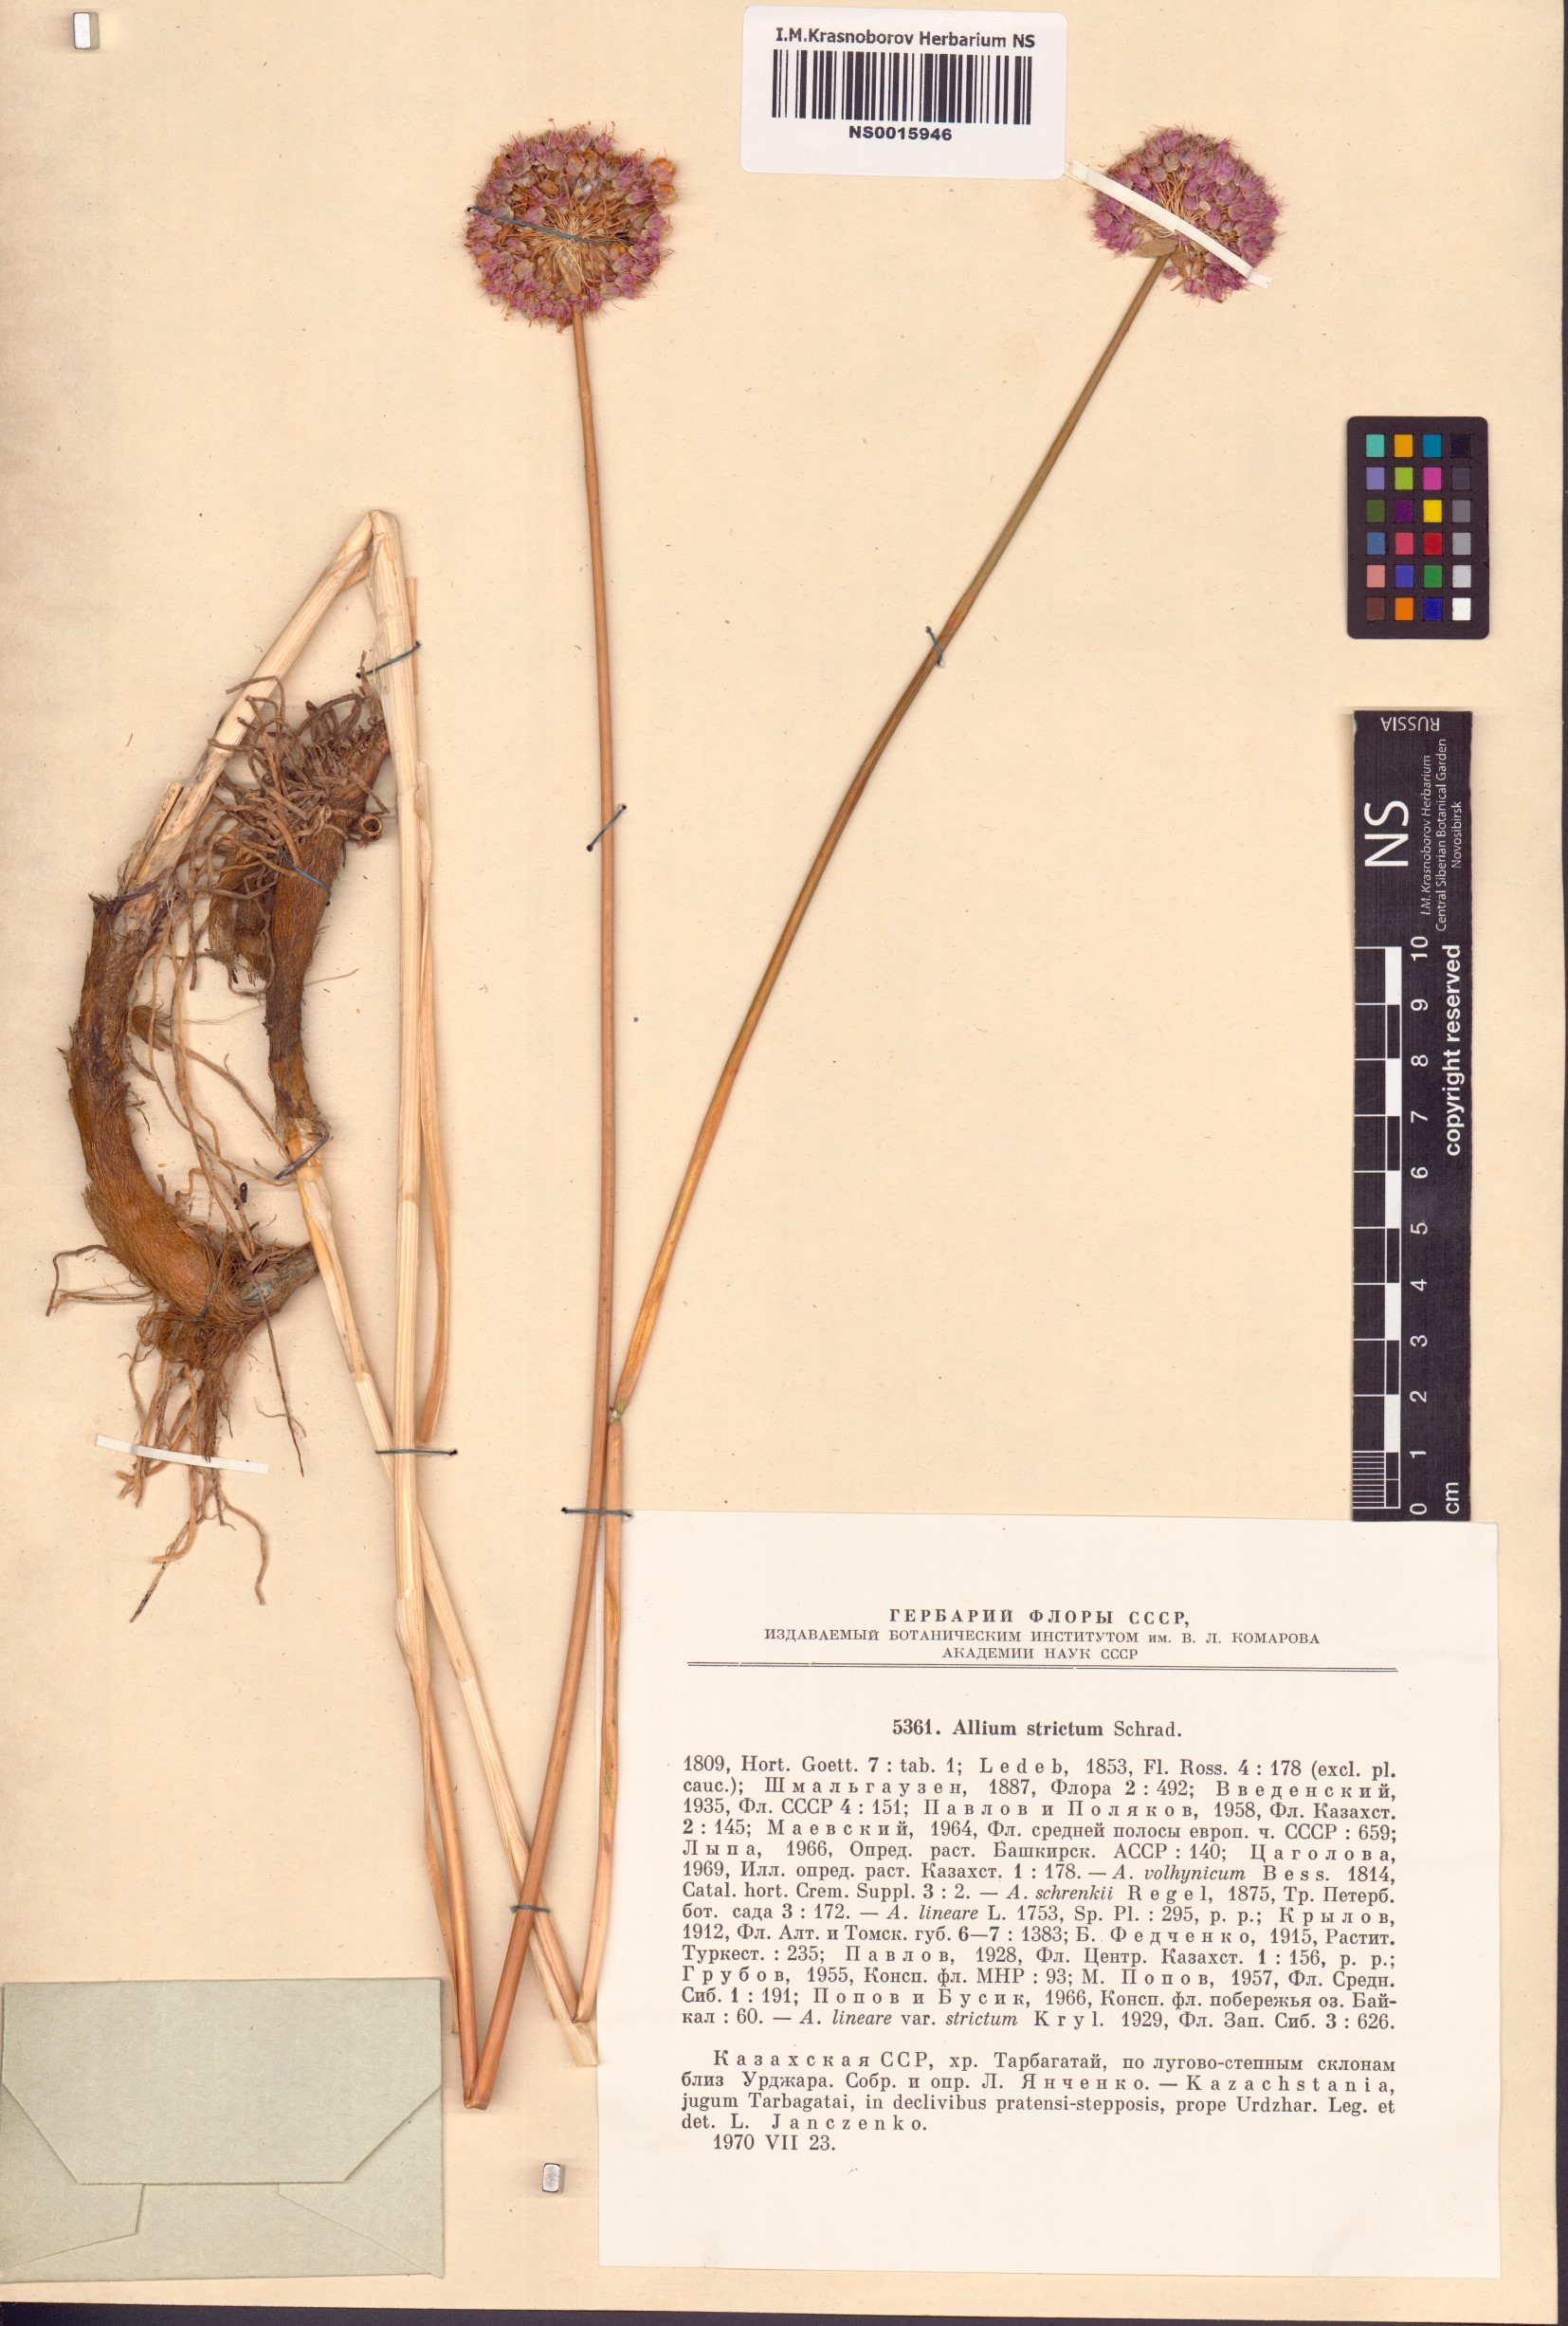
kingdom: Plantae
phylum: Tracheophyta
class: Liliopsida
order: Asparagales
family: Amaryllidaceae
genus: Allium
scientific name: Allium strictum
